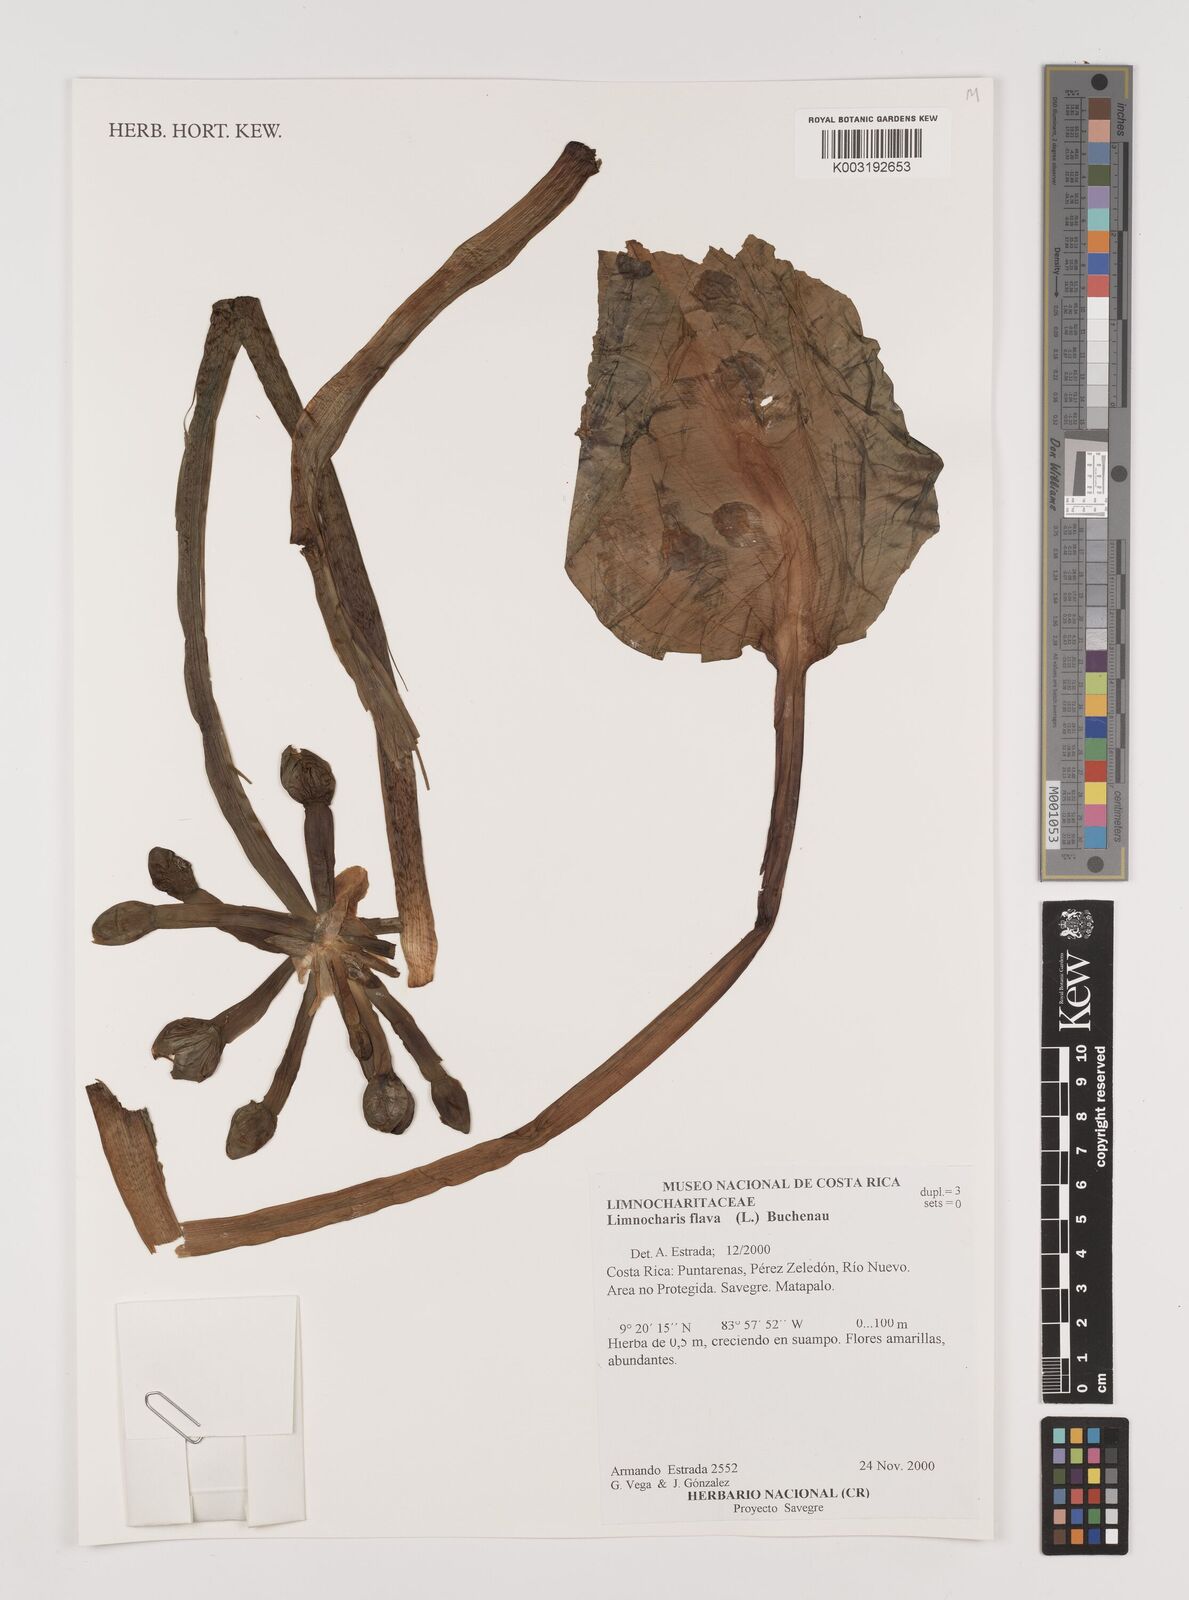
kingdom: Plantae
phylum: Tracheophyta
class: Liliopsida
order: Alismatales
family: Alismataceae
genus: Limnocharis
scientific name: Limnocharis flava
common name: Sawah-flower-rush
